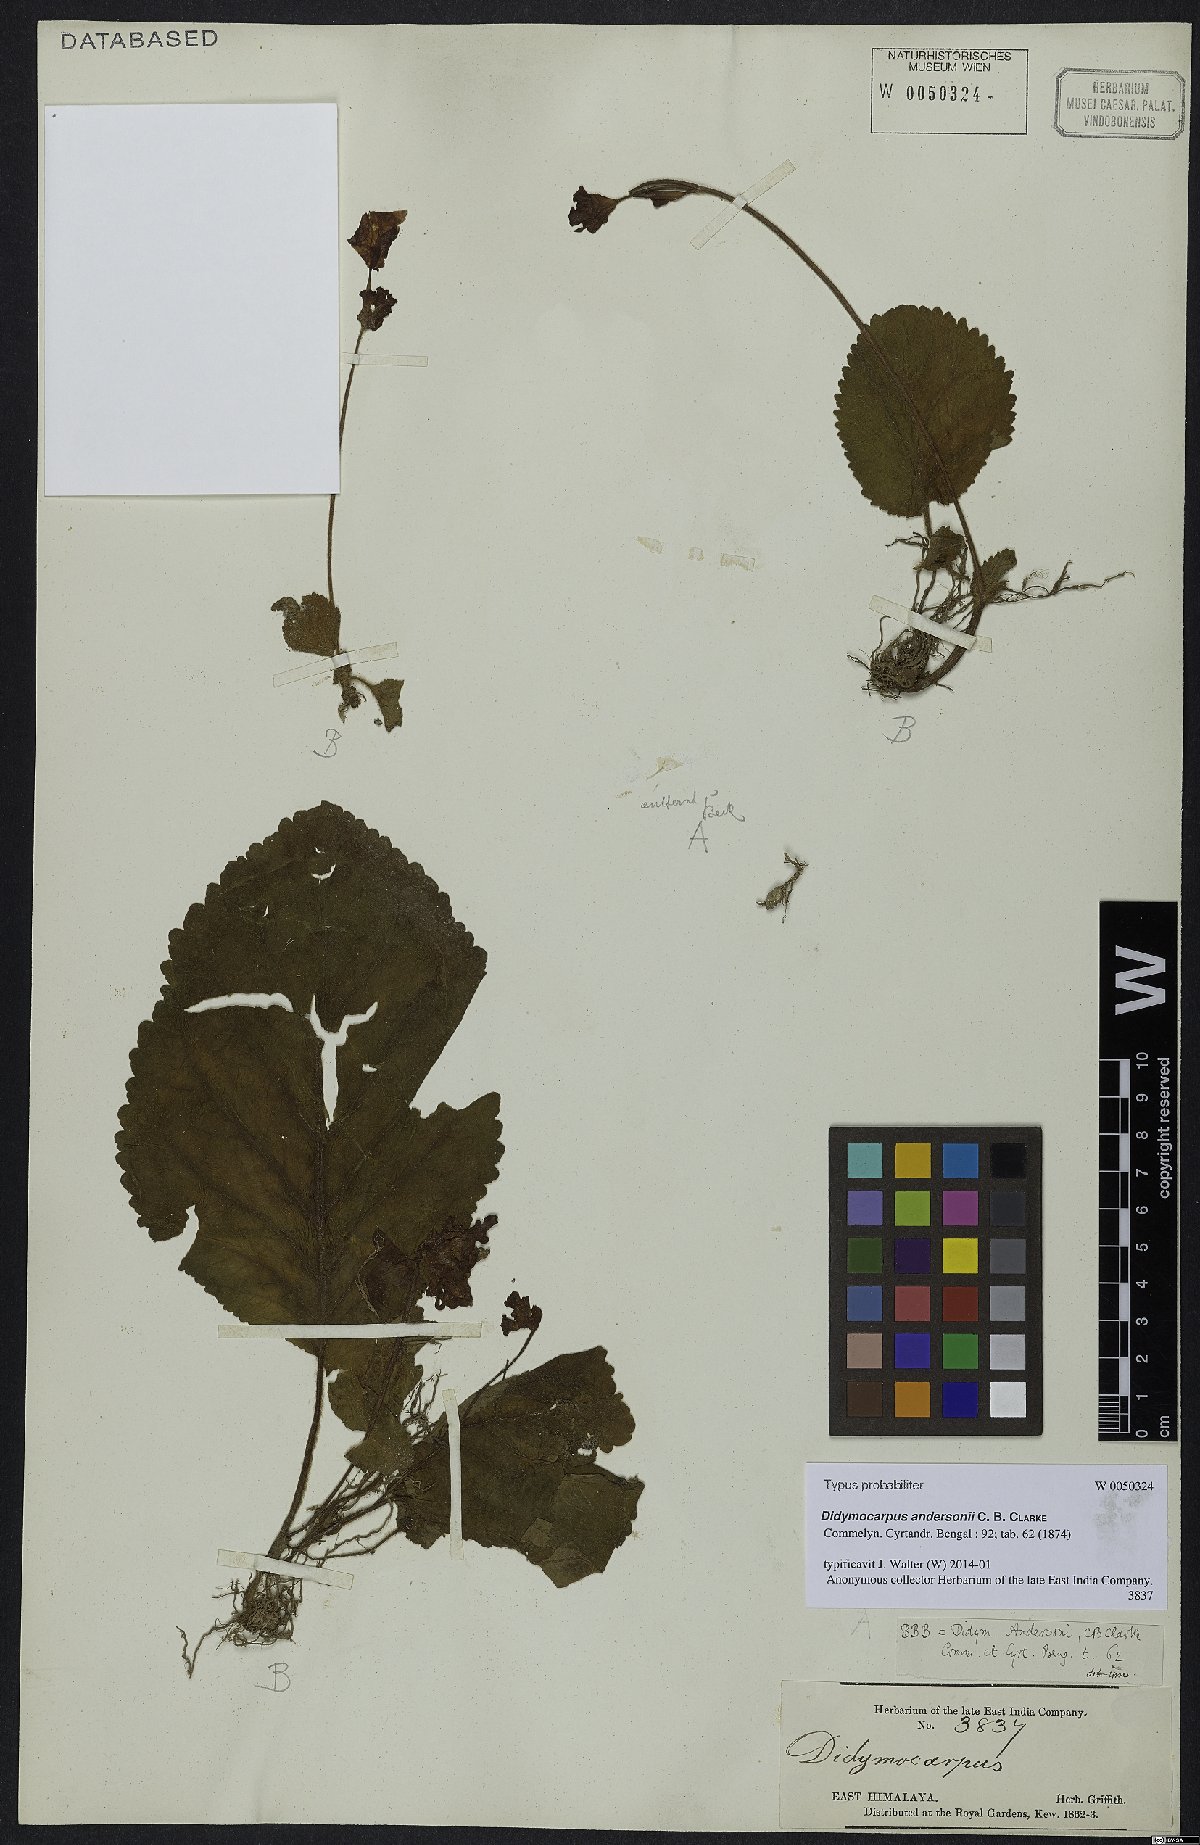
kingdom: Plantae
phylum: Tracheophyta
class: Magnoliopsida
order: Lamiales
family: Gesneriaceae
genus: Didymocarpus
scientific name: Didymocarpus andersonii
